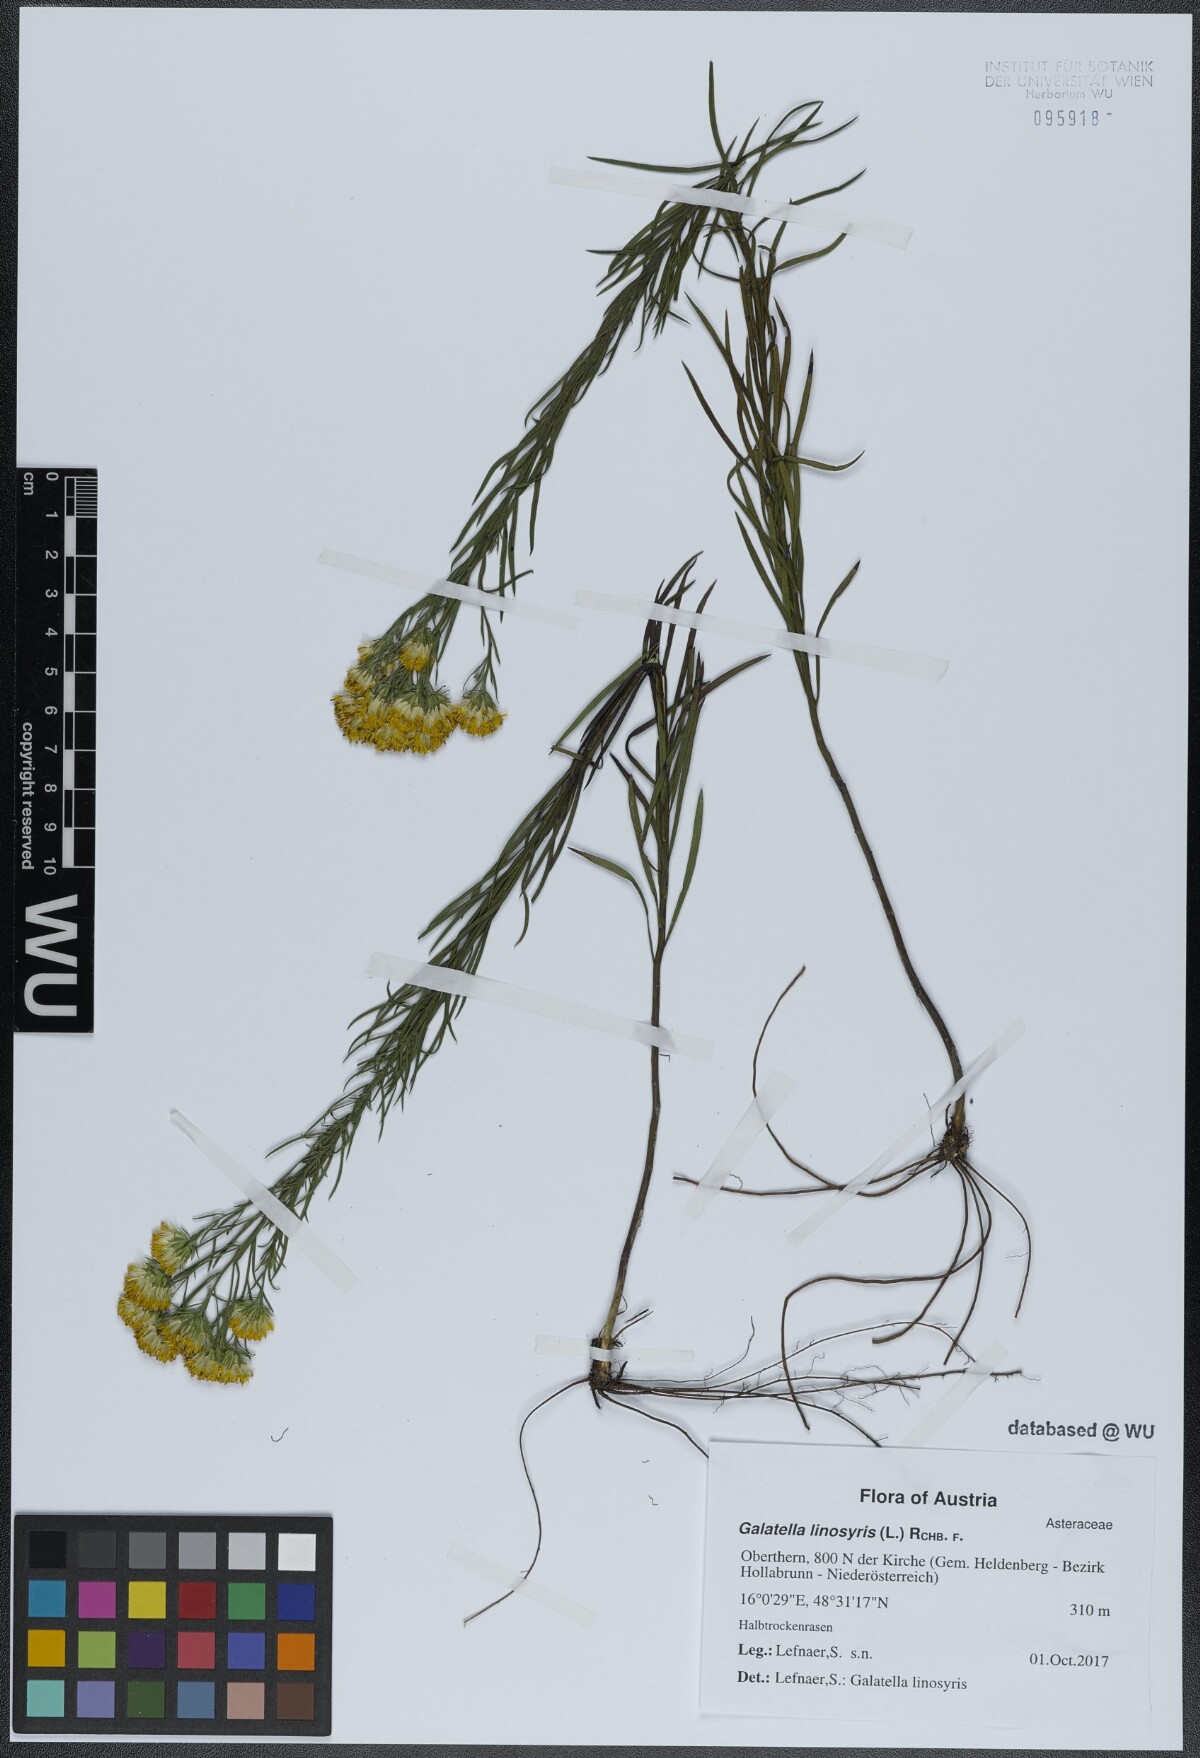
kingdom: Plantae
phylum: Tracheophyta
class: Magnoliopsida
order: Asterales
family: Asteraceae
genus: Galatella
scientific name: Galatella linosyris
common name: Goldilocks aster
